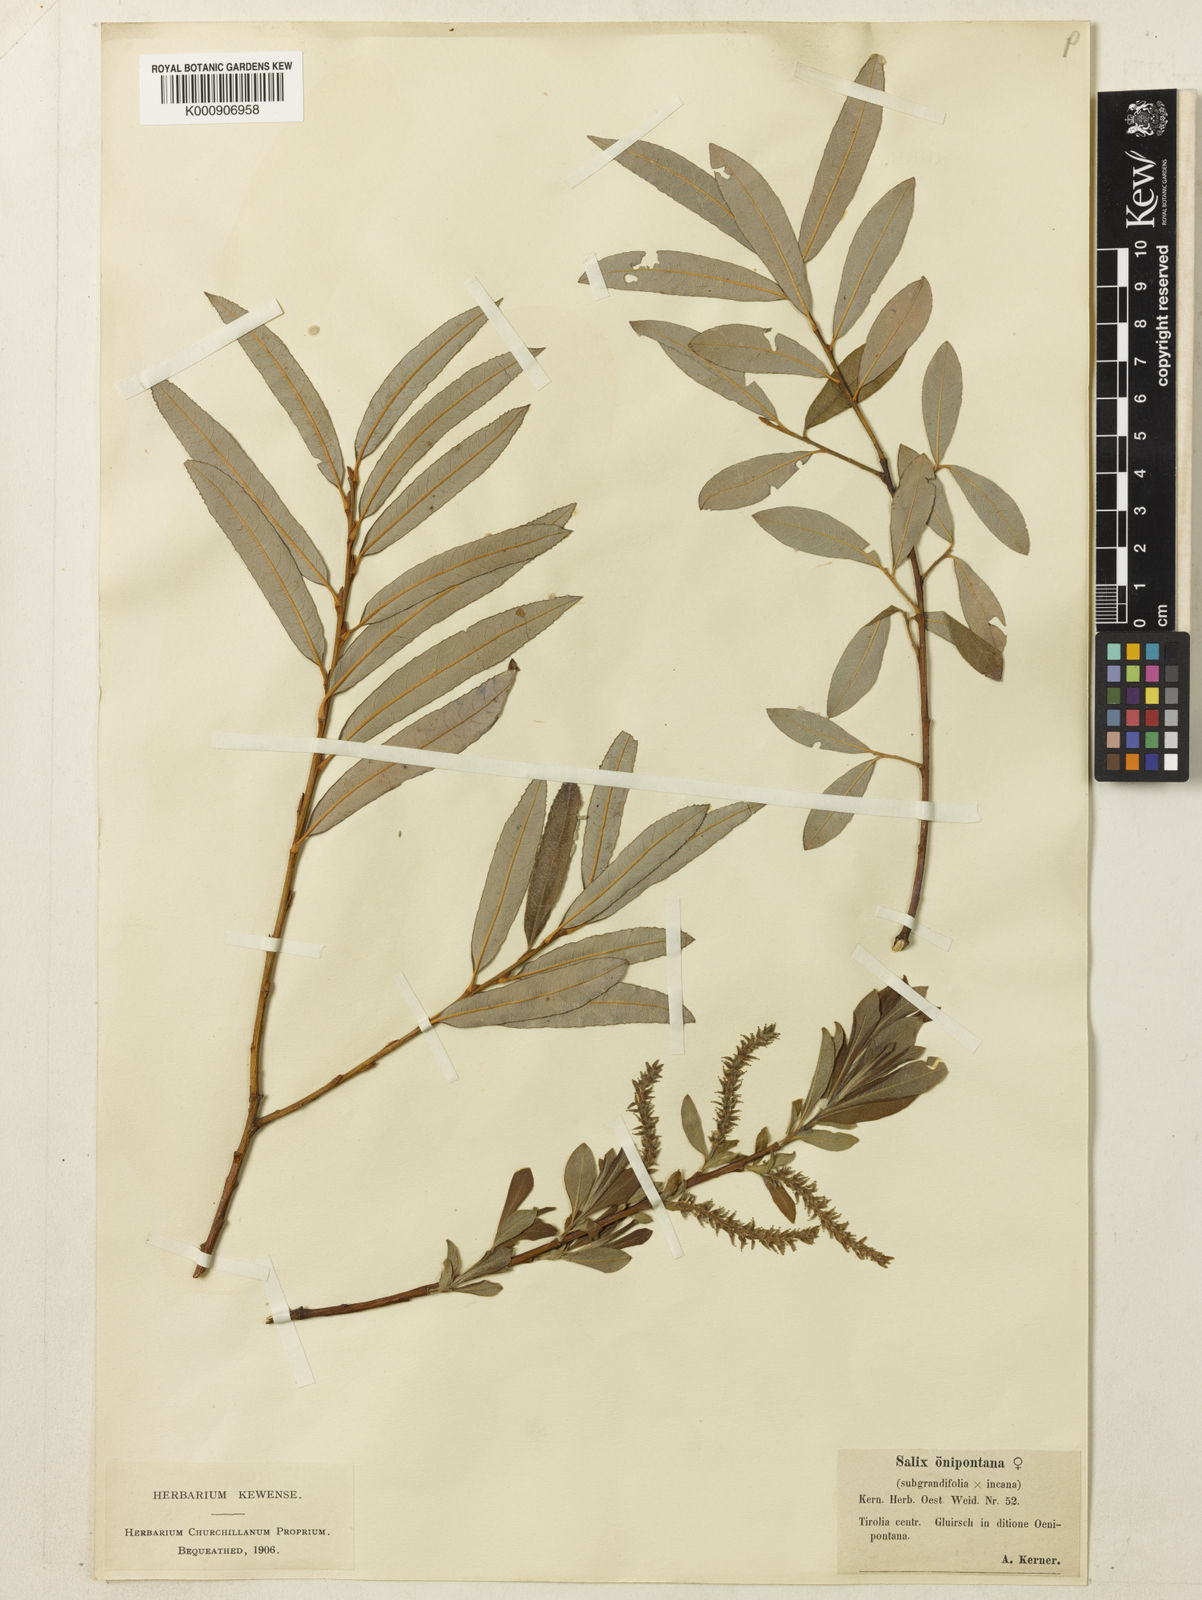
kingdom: Plantae
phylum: Tracheophyta
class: Magnoliopsida
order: Malpighiales
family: Salicaceae
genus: Salix
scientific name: Salix myrsinifolia
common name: Dark-leaved willow
